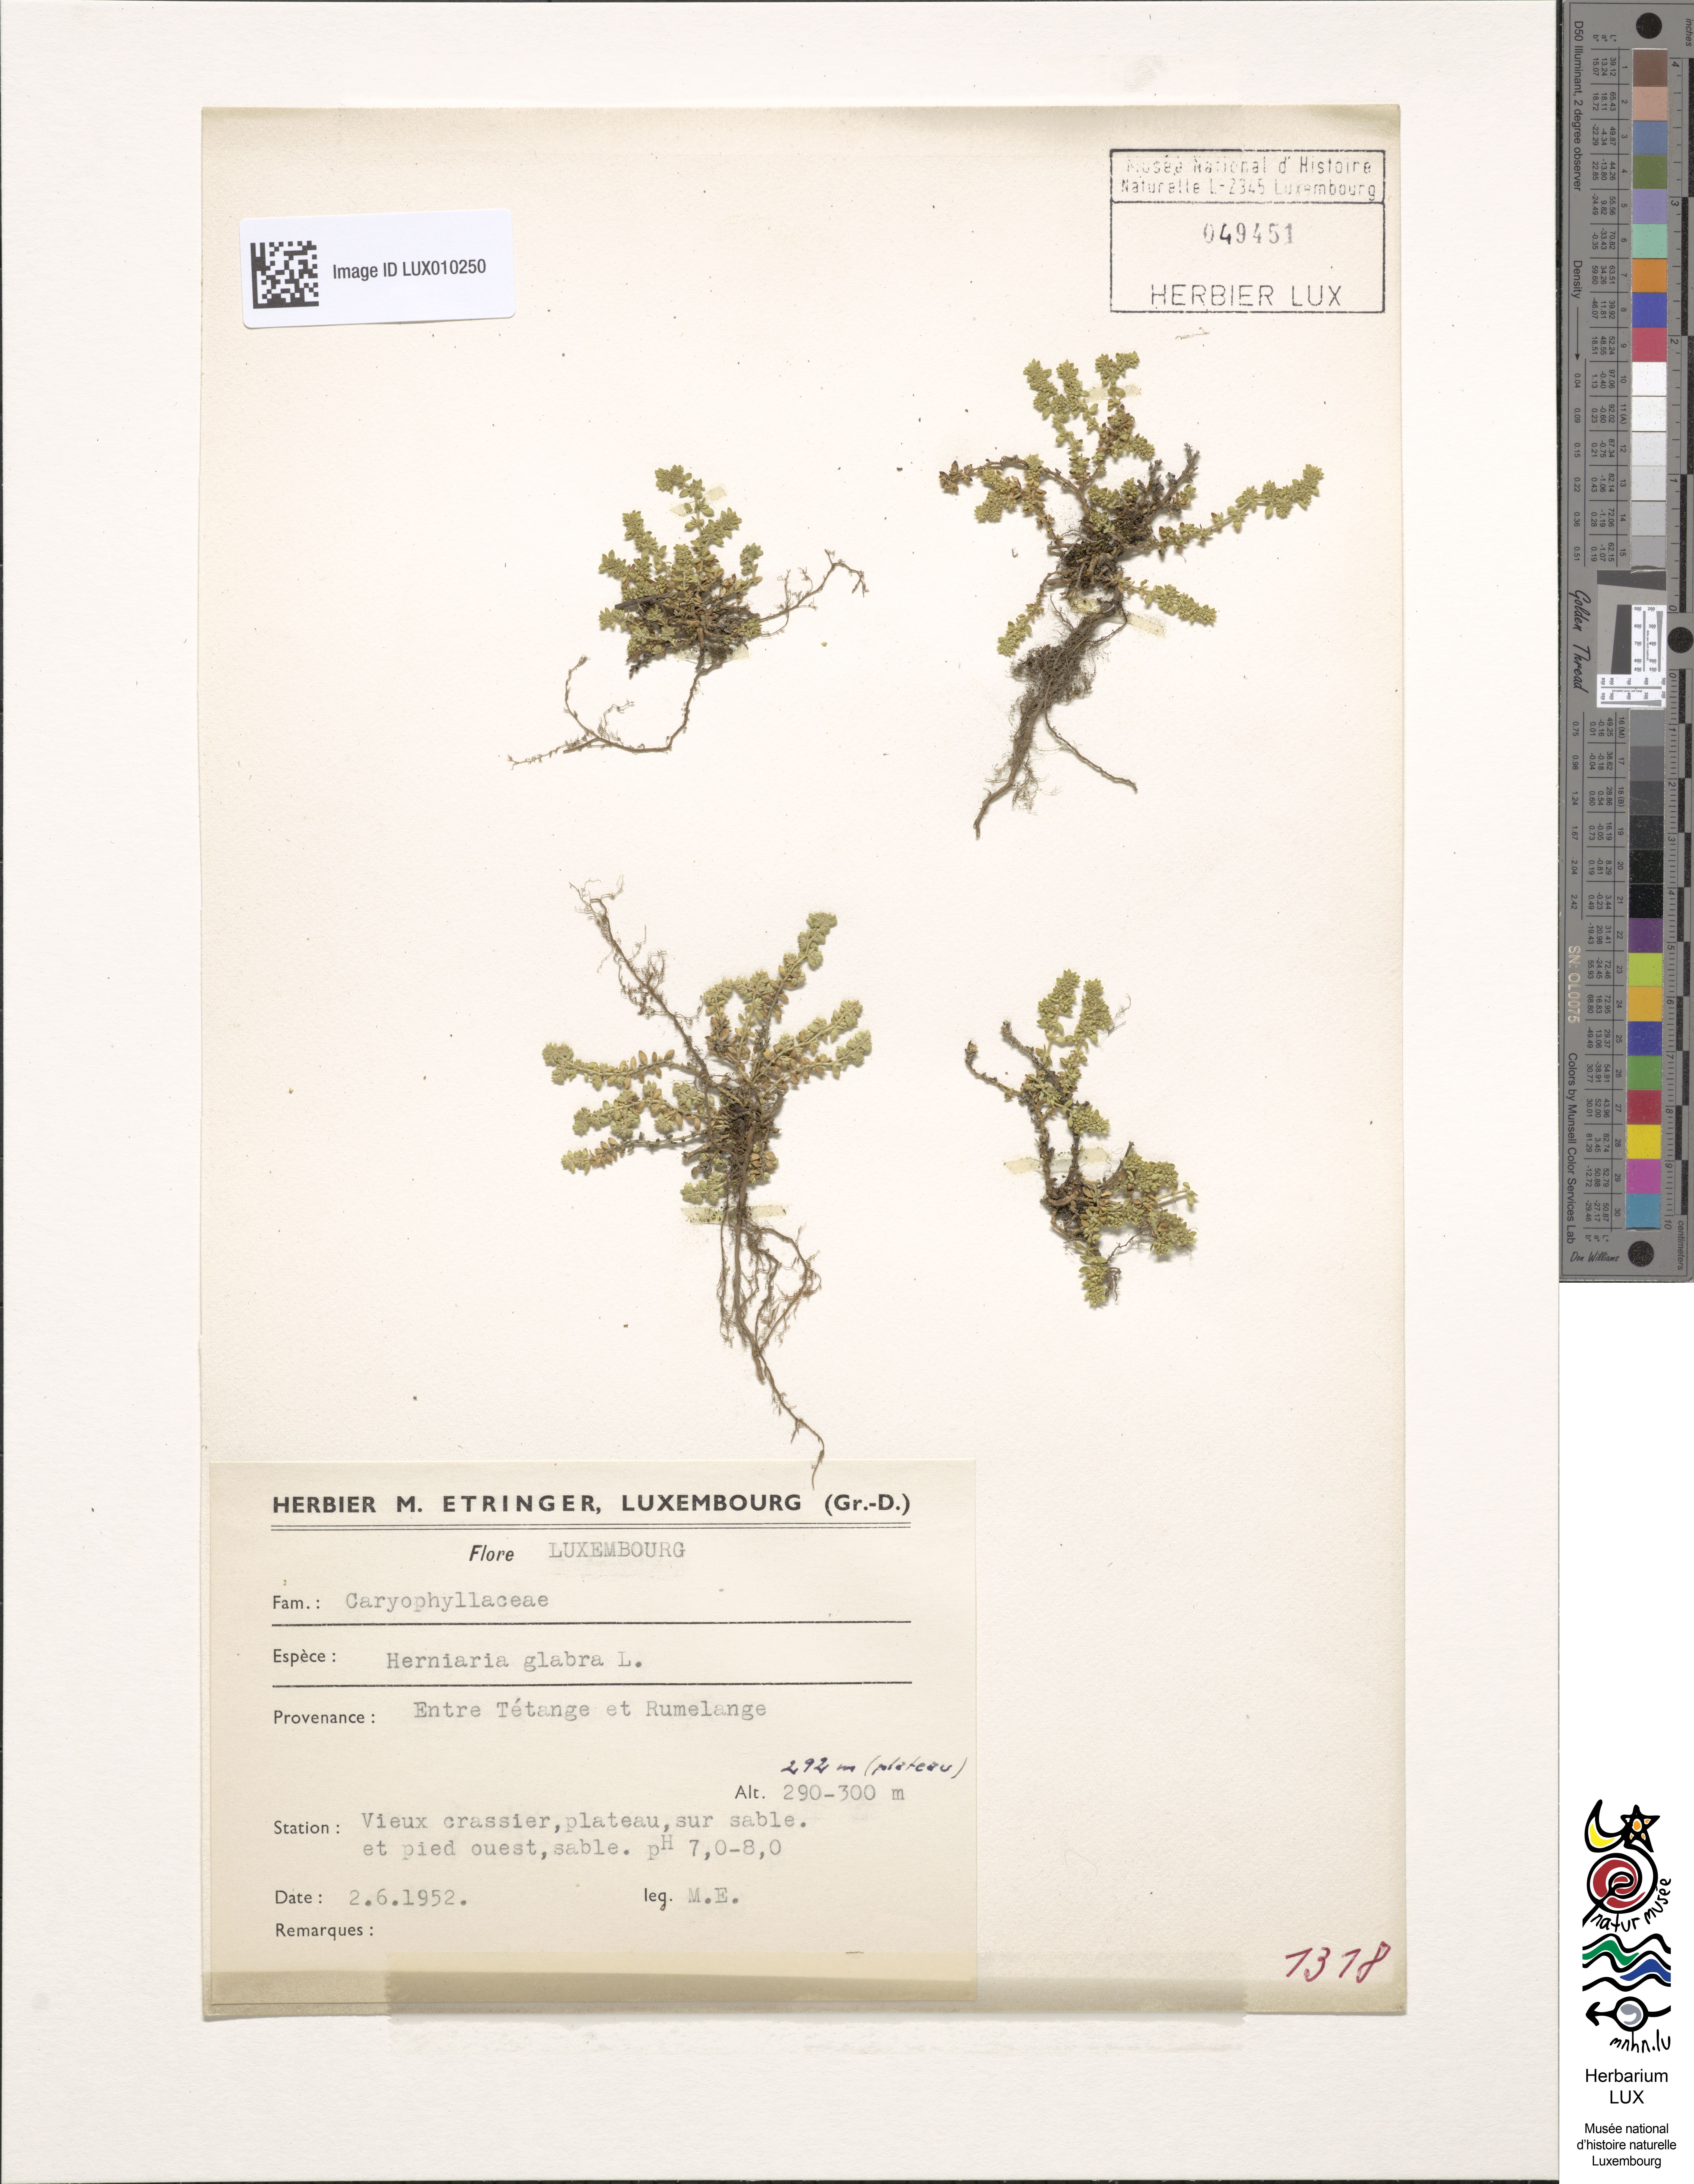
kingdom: Plantae
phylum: Tracheophyta
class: Magnoliopsida
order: Caryophyllales
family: Caryophyllaceae
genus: Herniaria
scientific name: Herniaria glabra
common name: Smooth rupturewort
